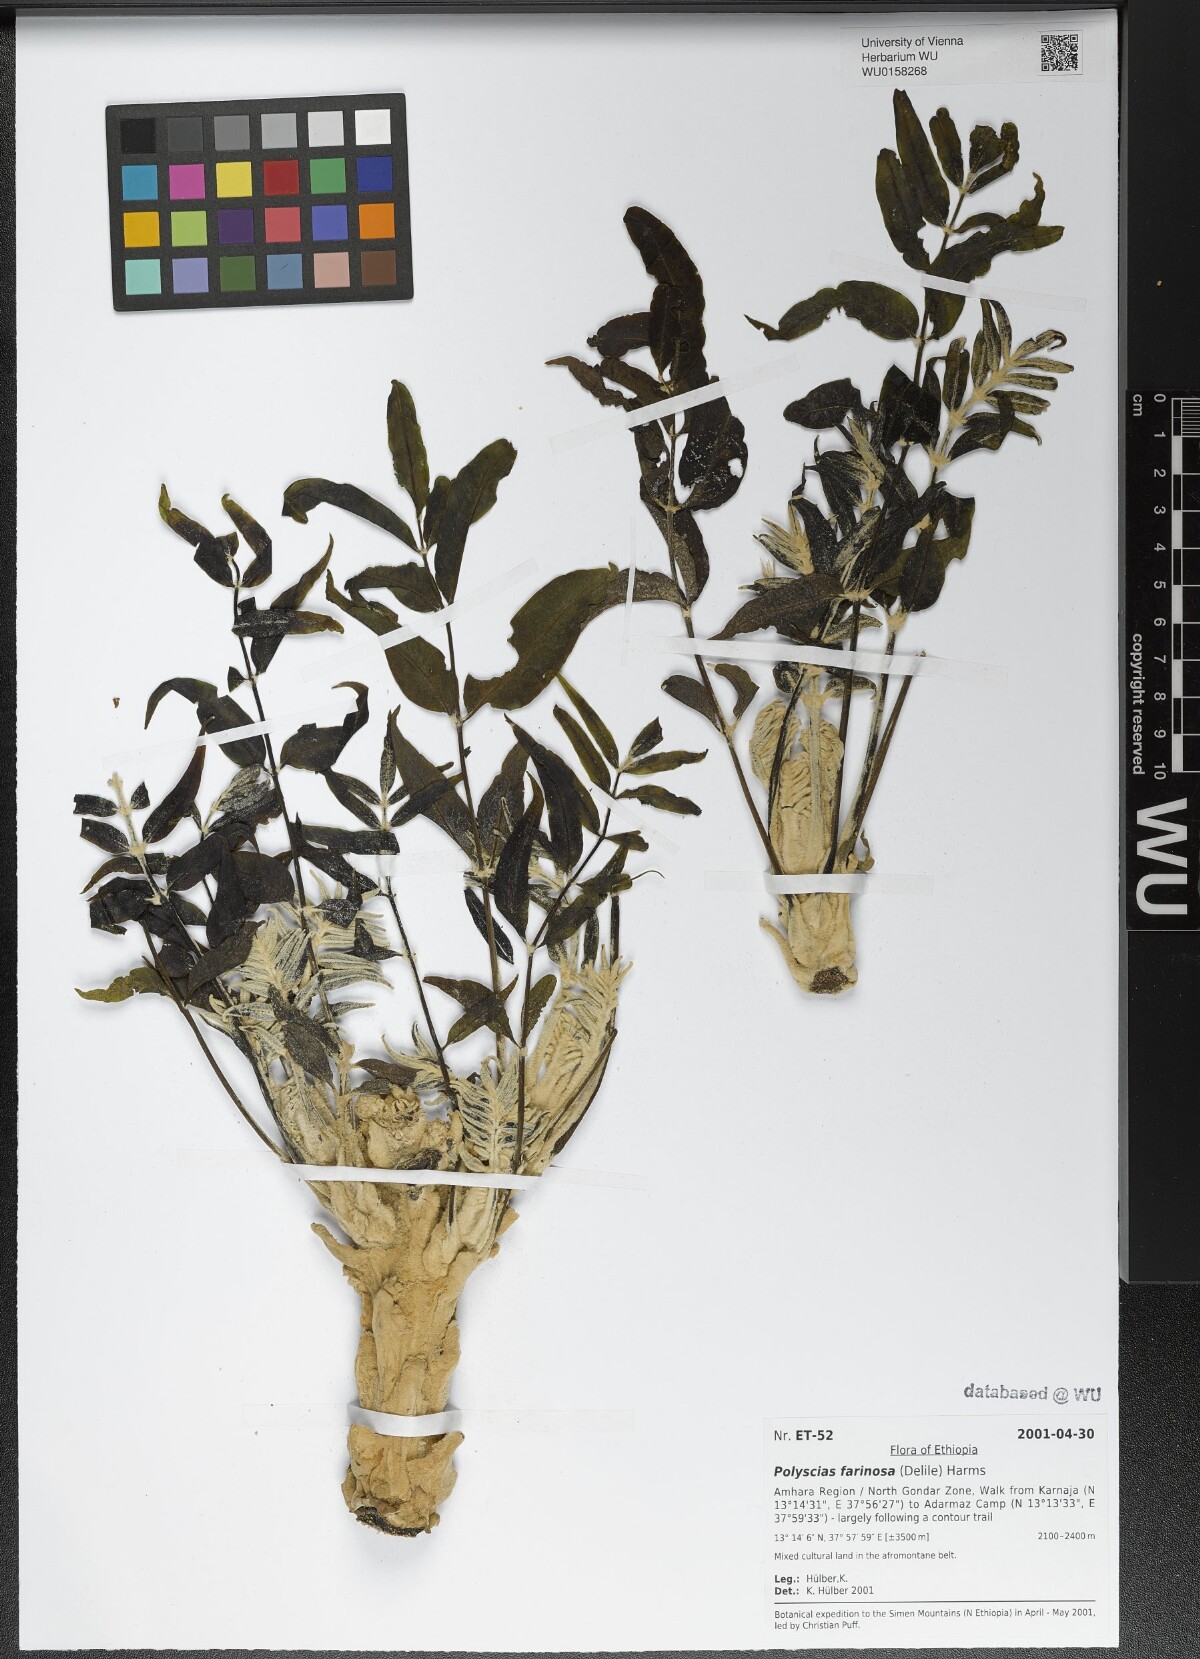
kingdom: Plantae
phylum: Tracheophyta
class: Magnoliopsida
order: Apiales
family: Araliaceae
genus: Polyscias
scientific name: Polyscias farinosa
